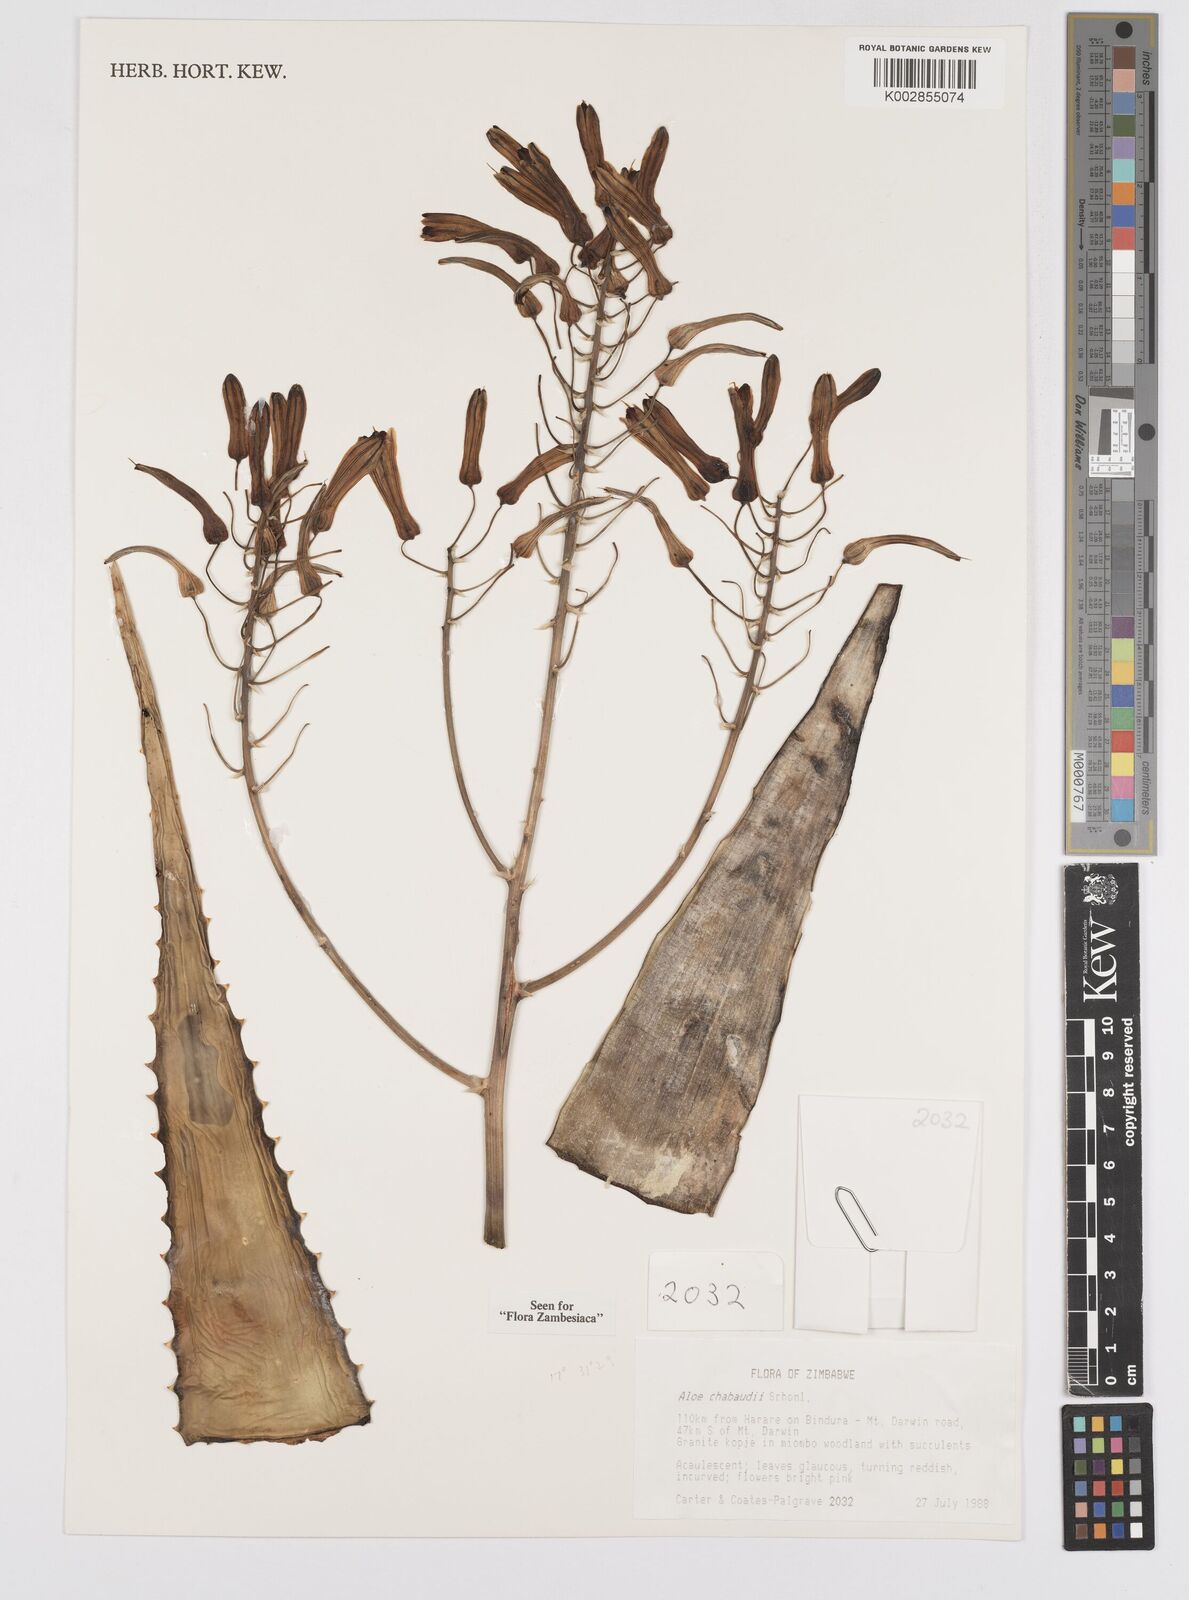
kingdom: Plantae
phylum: Tracheophyta
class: Liliopsida
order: Asparagales
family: Asphodelaceae
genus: Aloe
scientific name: Aloe chabaudii
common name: Chabaud's aloe
